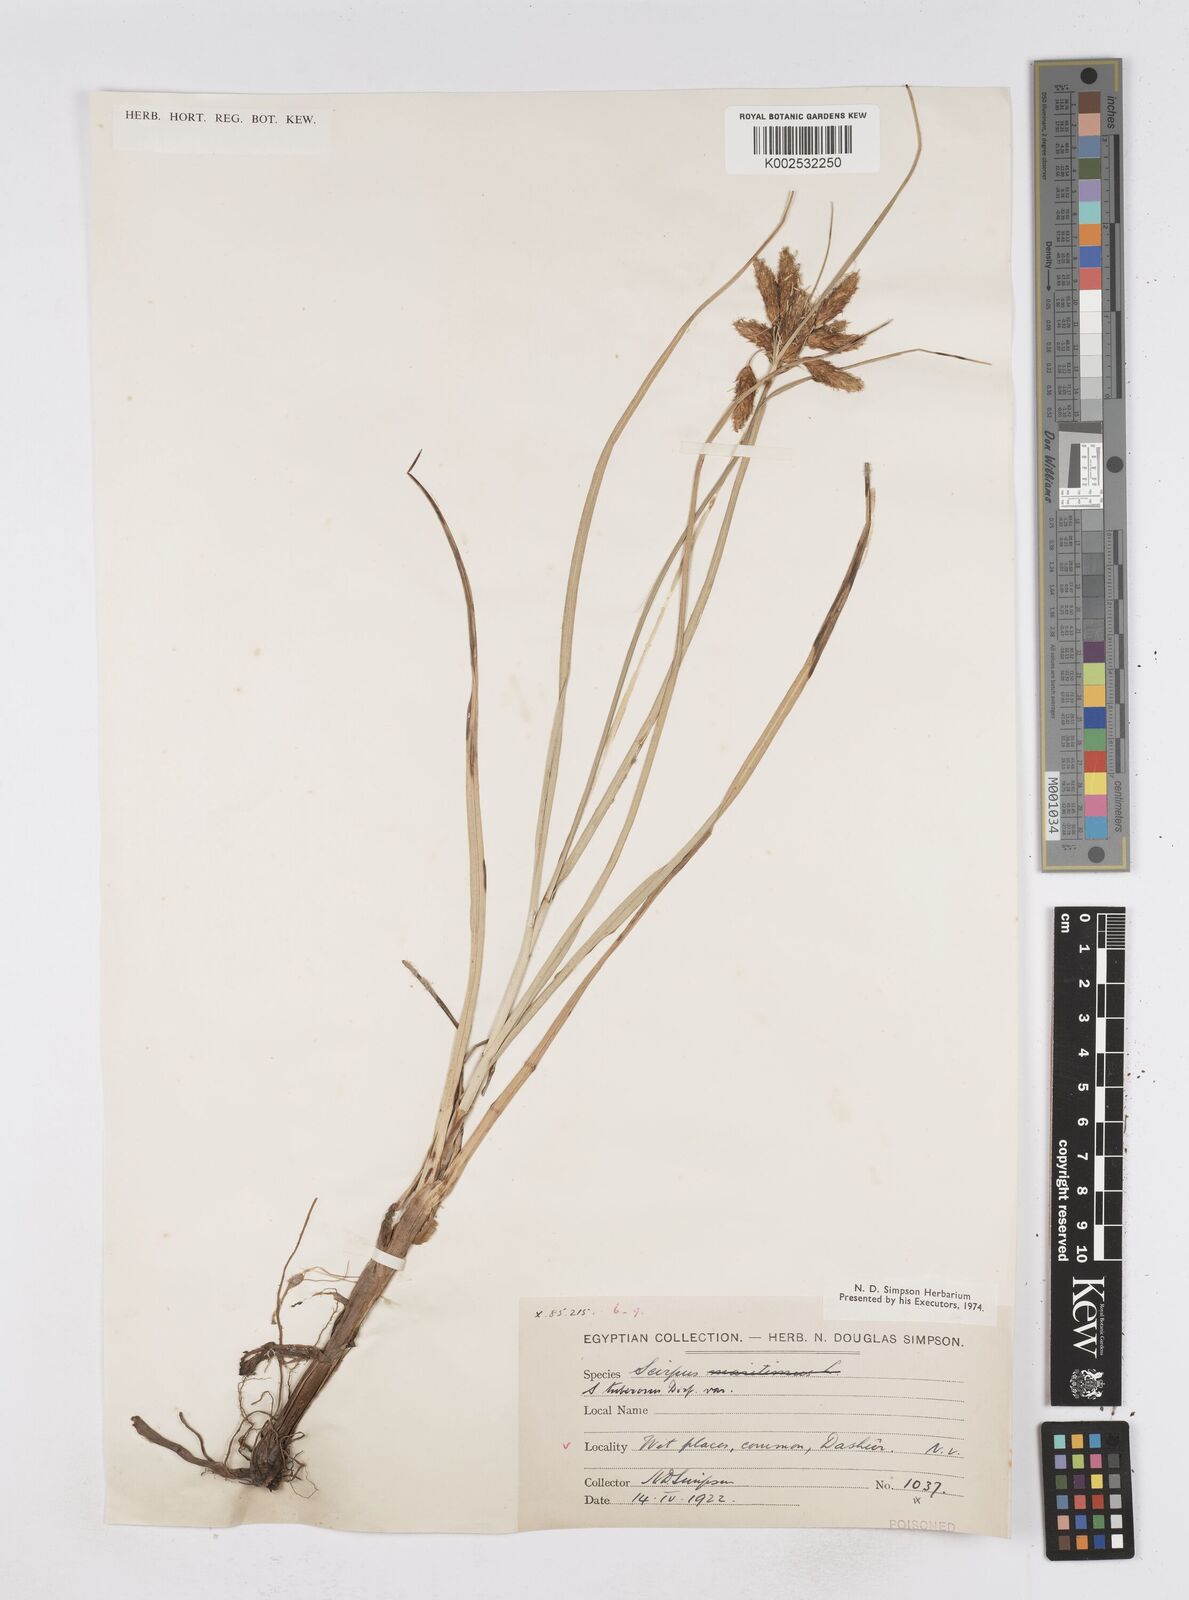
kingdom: Plantae
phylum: Tracheophyta
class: Liliopsida
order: Poales
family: Cyperaceae
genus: Bolboschoenus
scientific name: Bolboschoenus maritimus
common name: Sea club-rush
